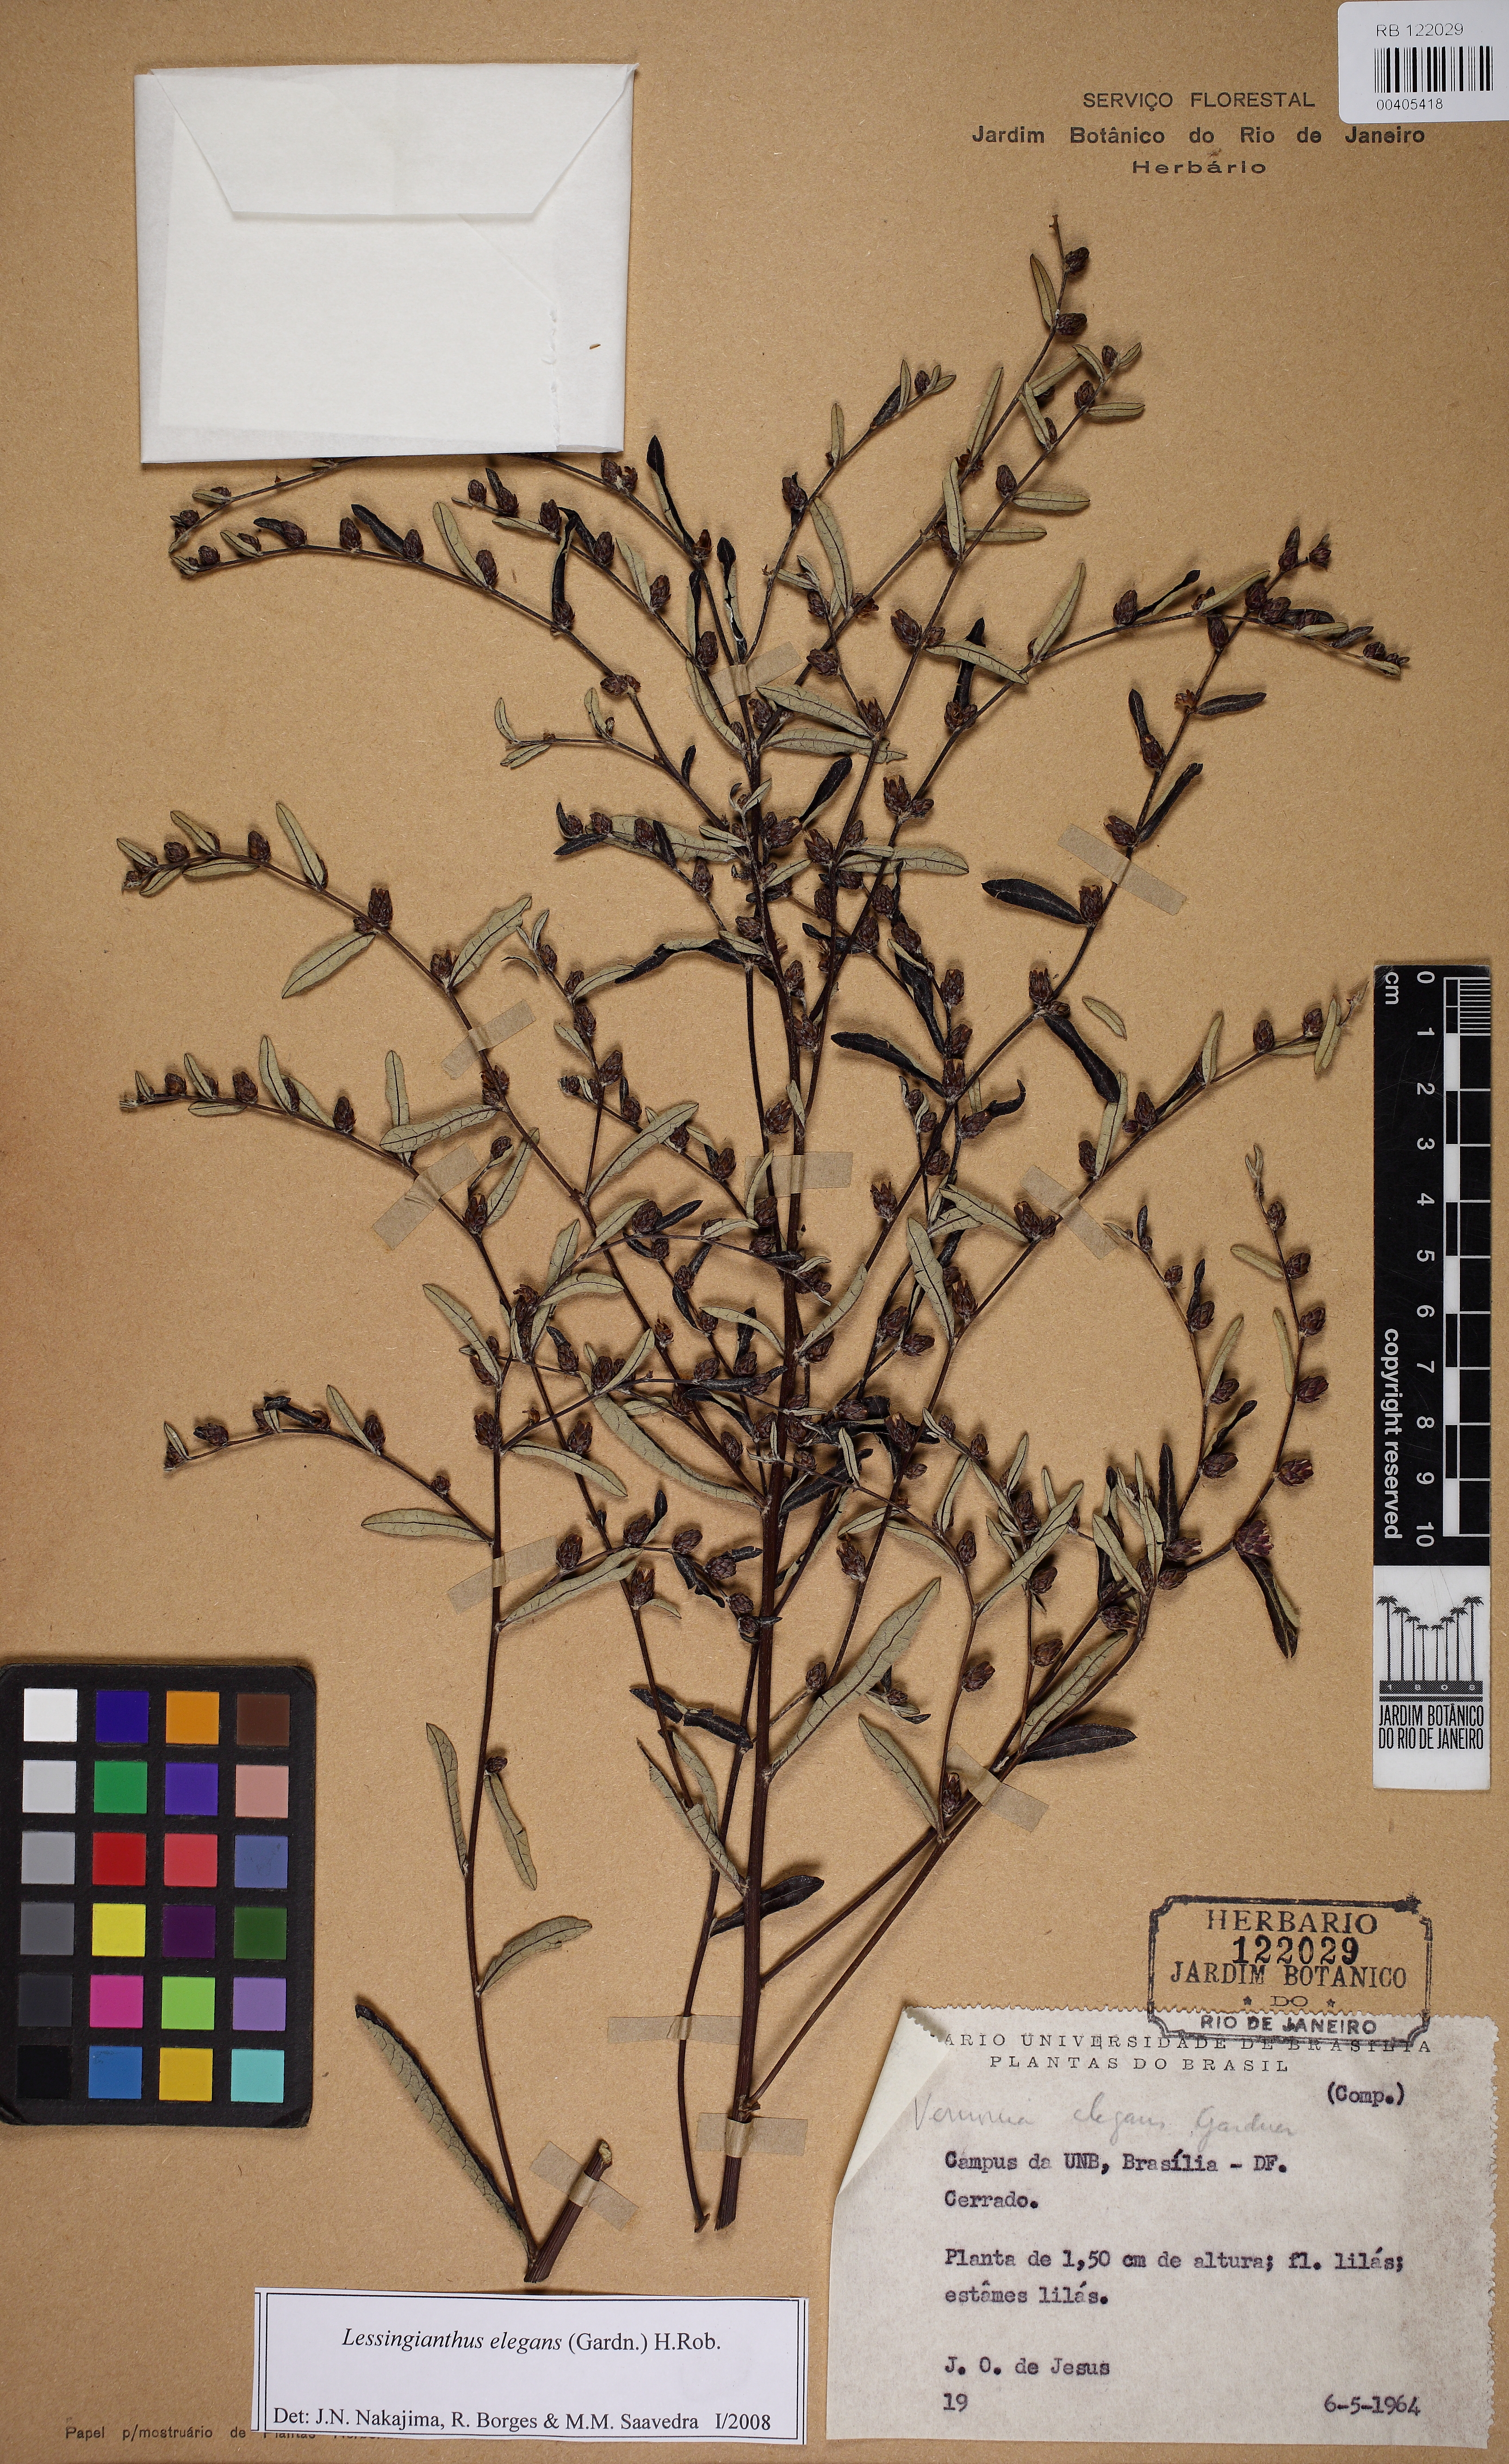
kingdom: Plantae
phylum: Tracheophyta
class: Magnoliopsida
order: Asterales
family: Asteraceae
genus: Lessingianthus
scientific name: Lessingianthus elegans
